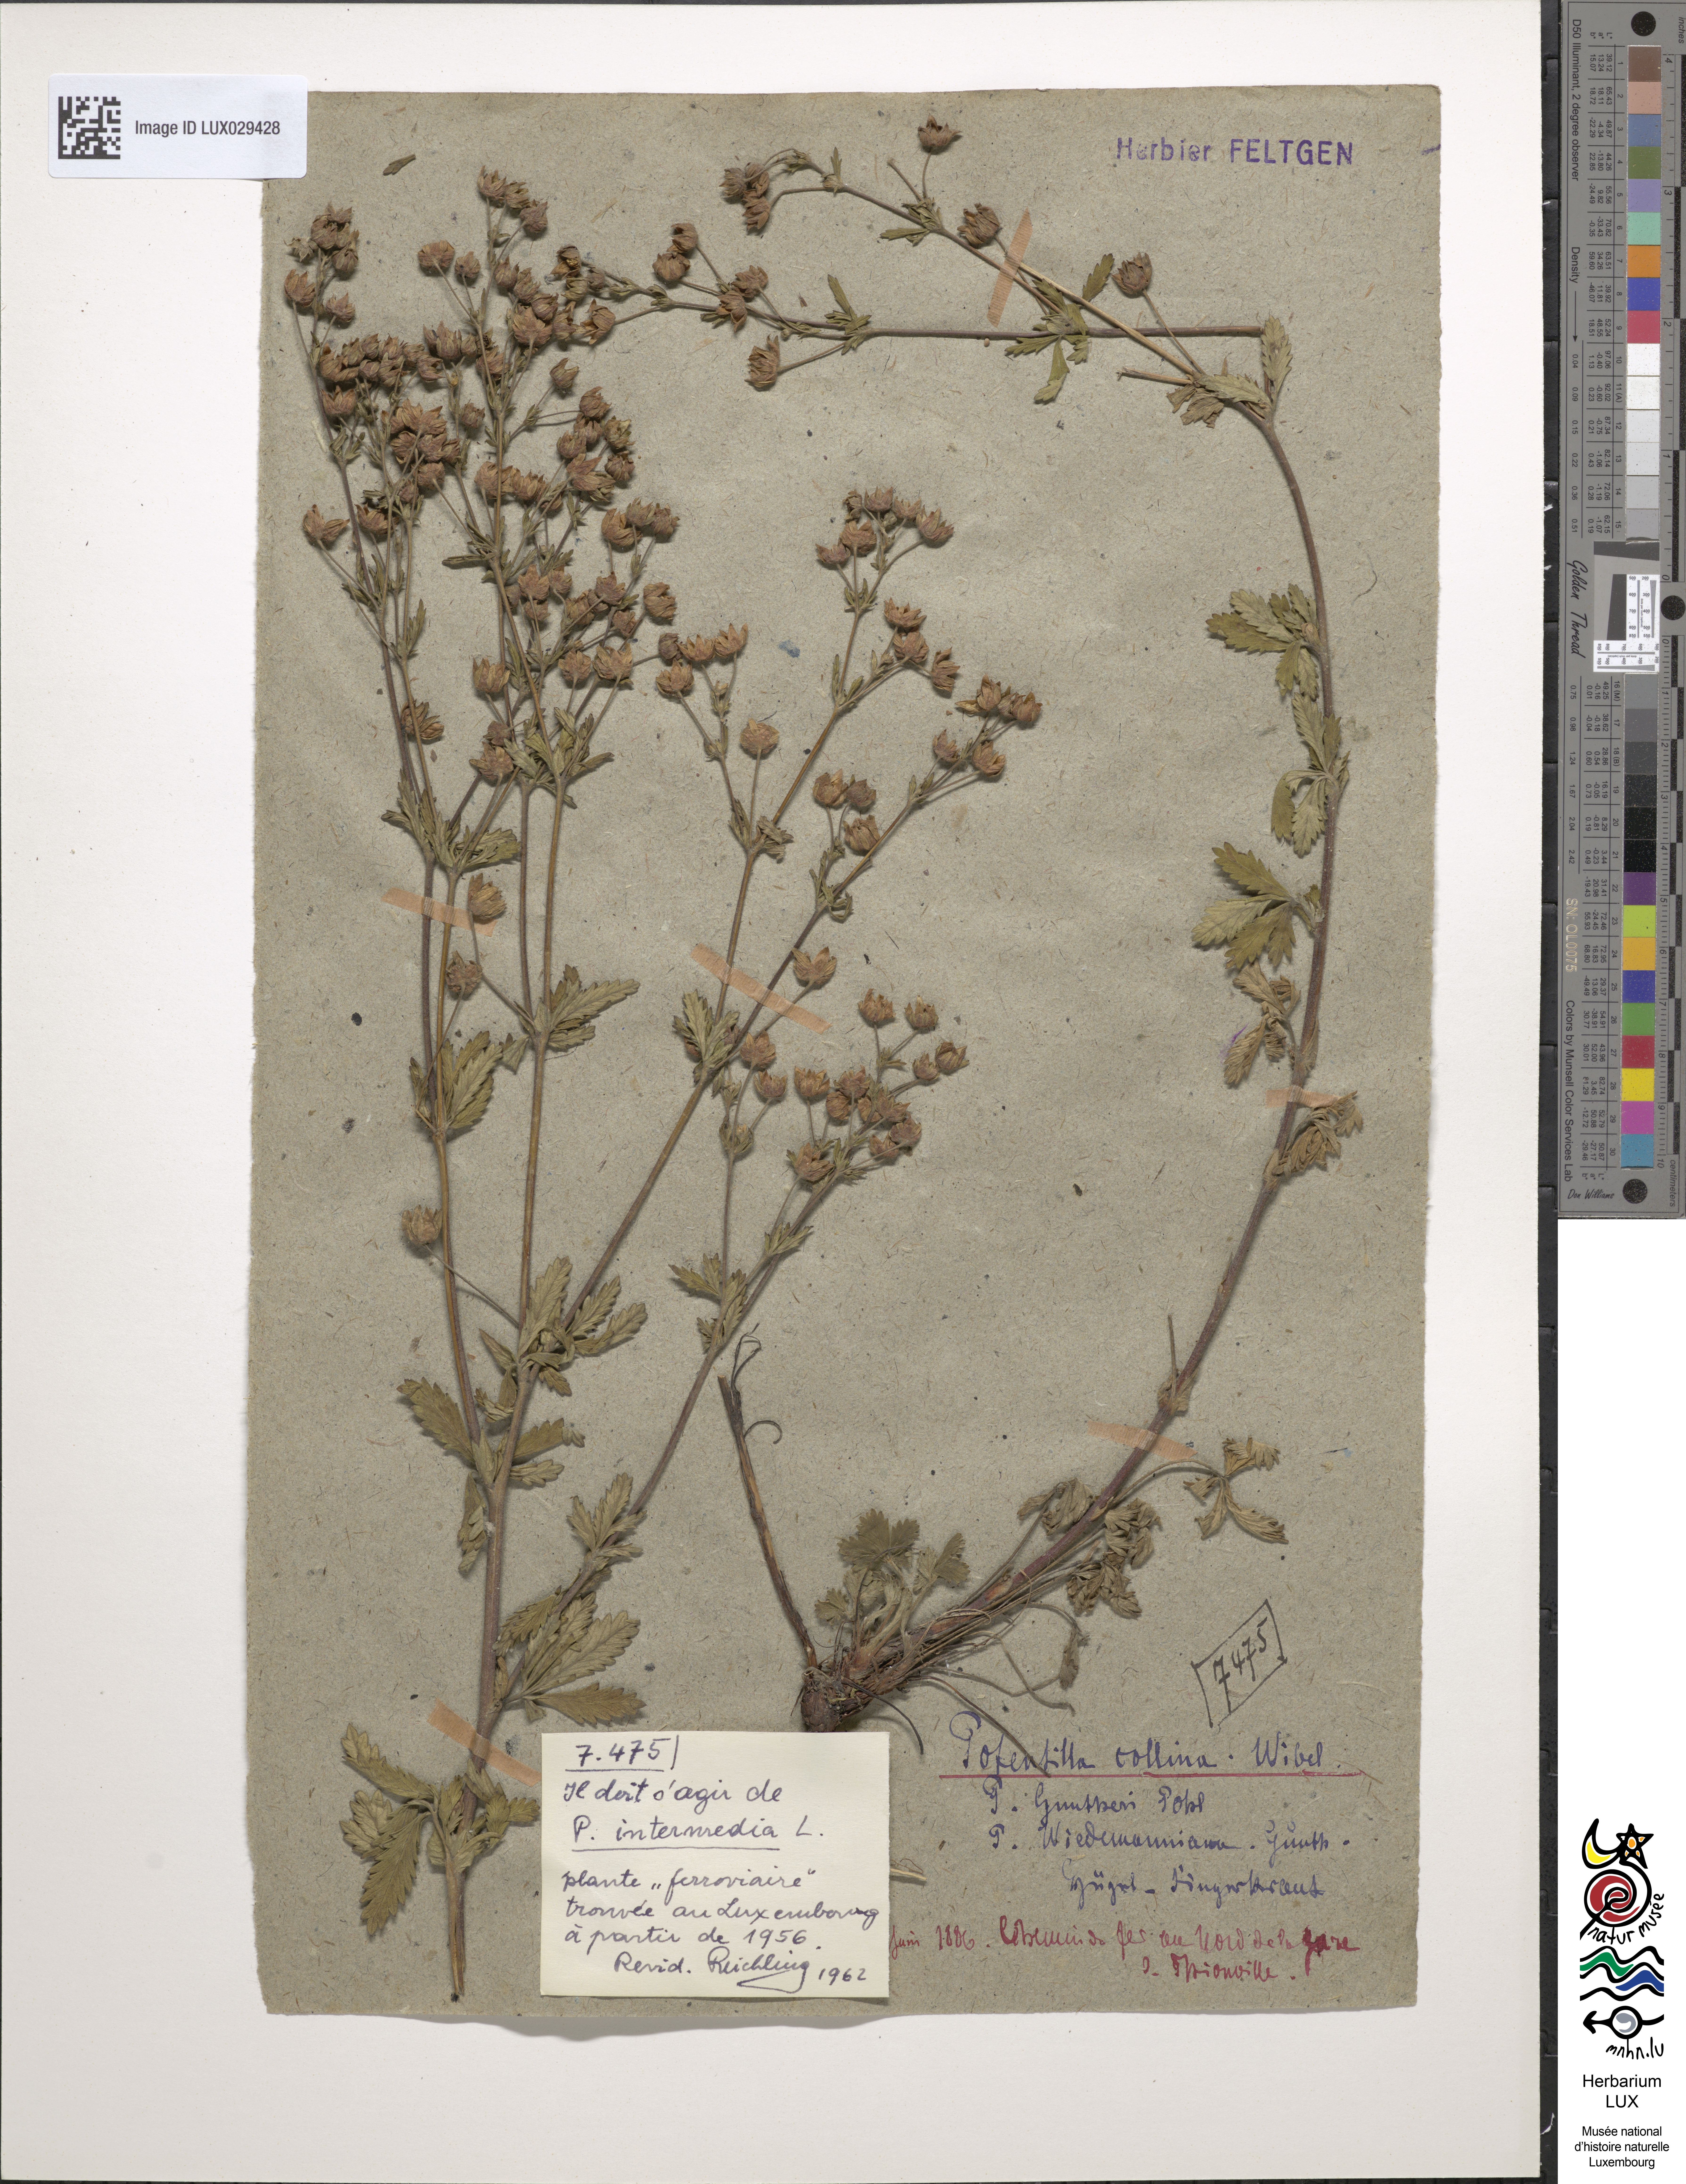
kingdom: Plantae
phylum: Tracheophyta
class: Magnoliopsida
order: Rosales
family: Rosaceae
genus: Potentilla
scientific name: Potentilla wimanniana
